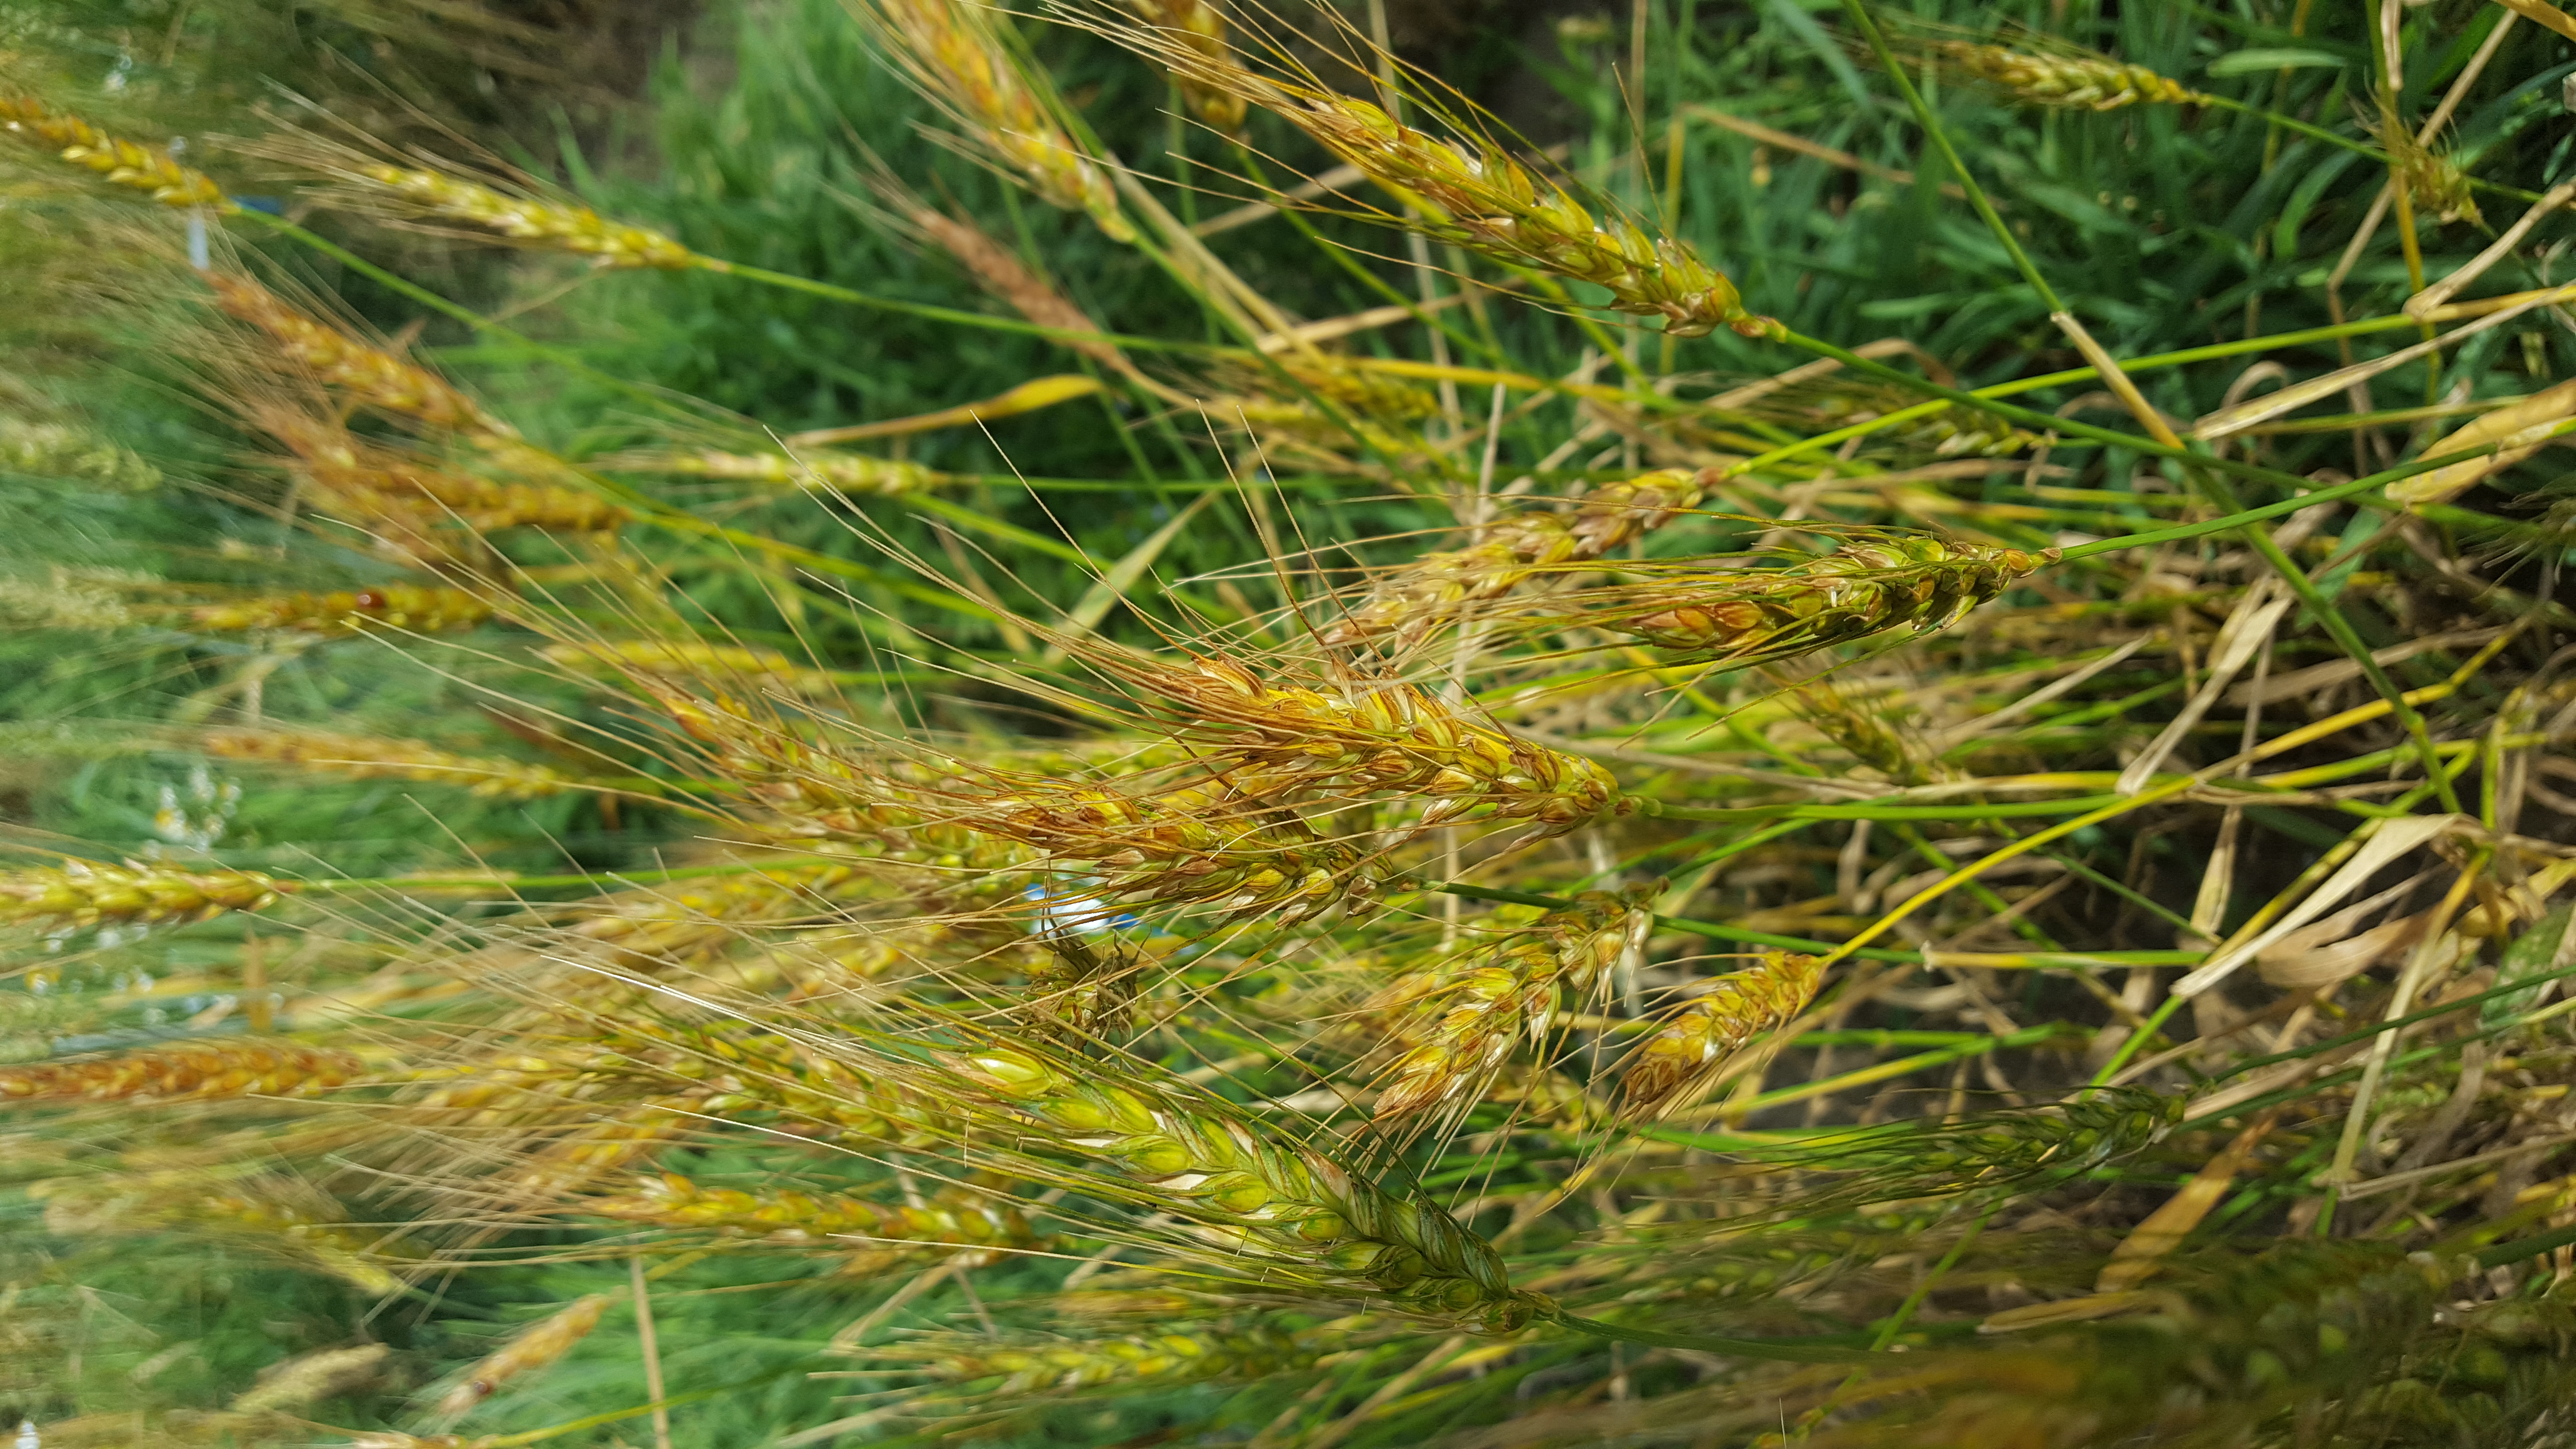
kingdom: Plantae
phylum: Tracheophyta
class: Liliopsida
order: Poales
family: Poaceae
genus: Triticum
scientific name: Triticum aestivum
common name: Common wheat
